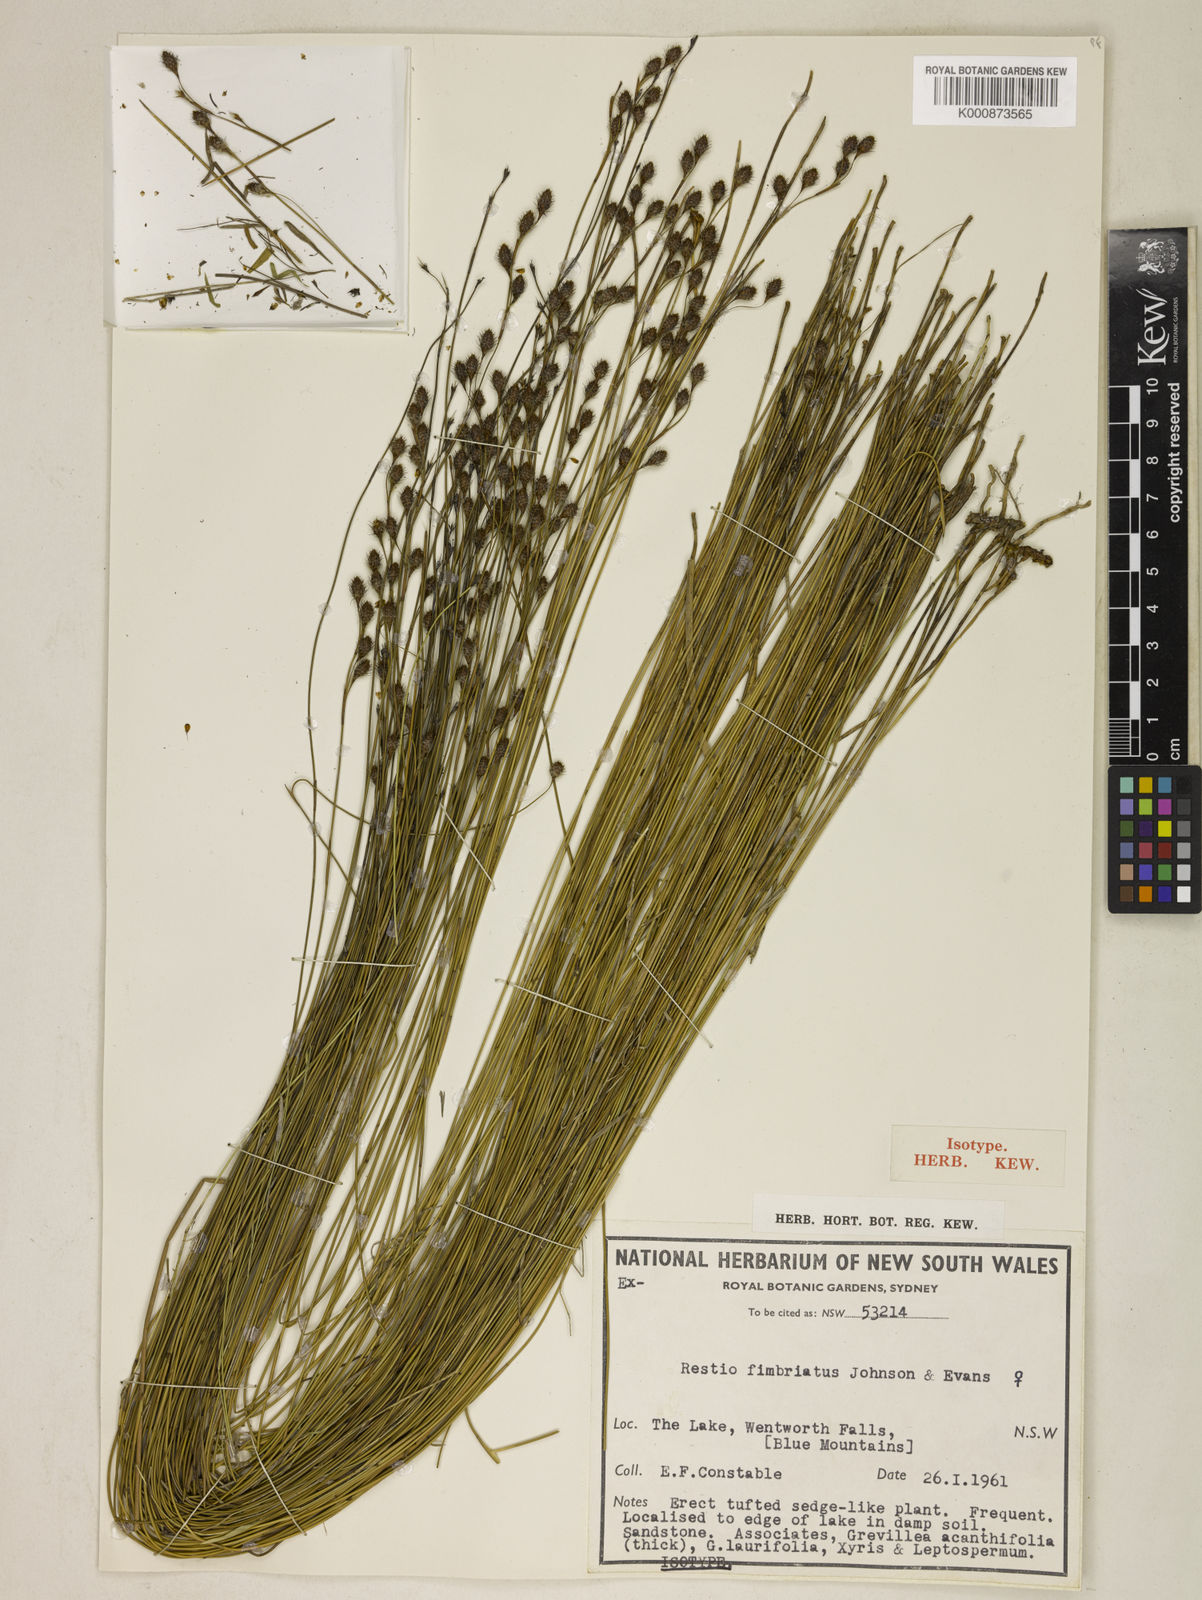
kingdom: Plantae
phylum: Tracheophyta
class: Liliopsida
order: Poales
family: Restionaceae
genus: Baloskion
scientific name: Baloskion fimbriatum
